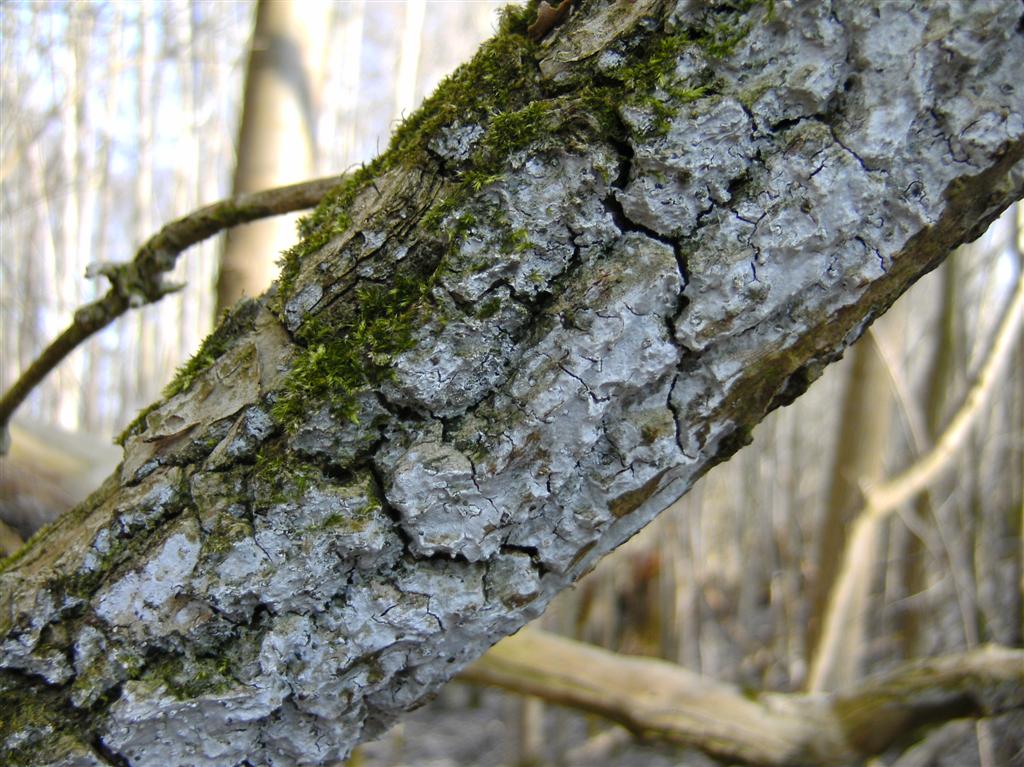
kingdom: Fungi
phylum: Basidiomycota
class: Agaricomycetes
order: Corticiales
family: Corticiaceae
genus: Lyomyces
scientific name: Lyomyces sambuci
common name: almindelig hyldehinde
